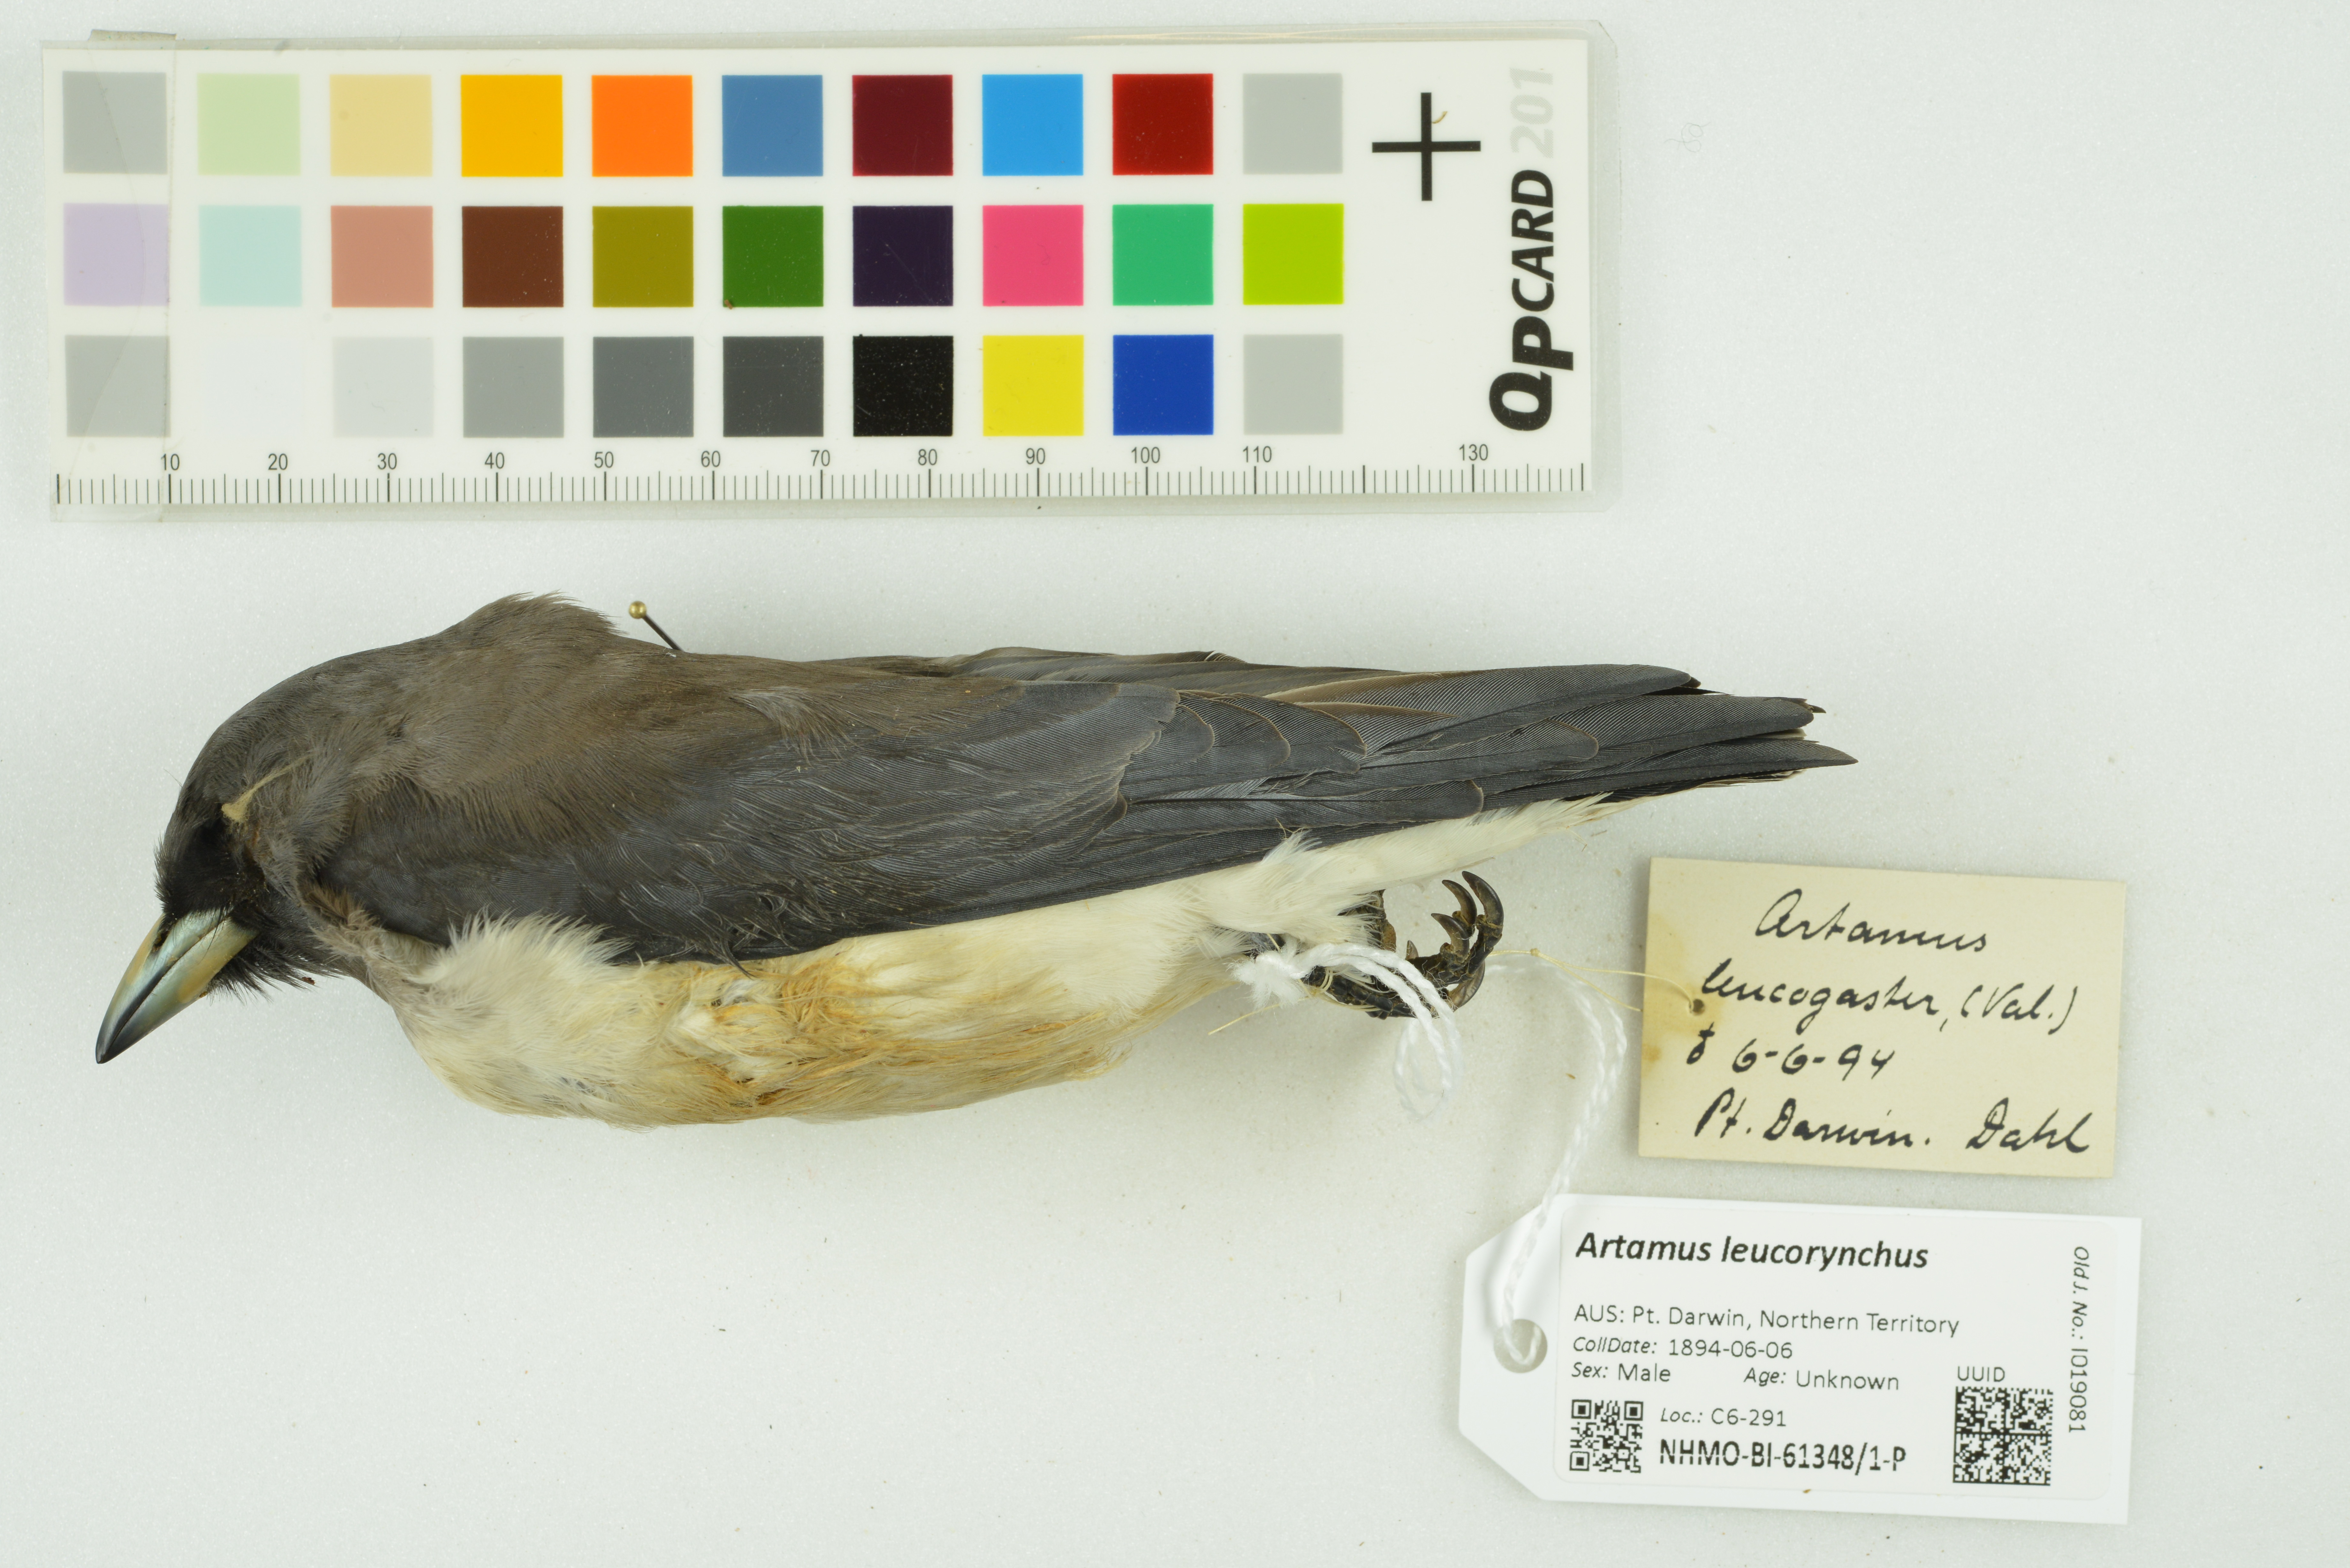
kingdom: Animalia
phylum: Chordata
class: Aves
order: Passeriformes
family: Artamidae
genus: Artamus
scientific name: Artamus leucoryn
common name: White-breasted woodswallow
